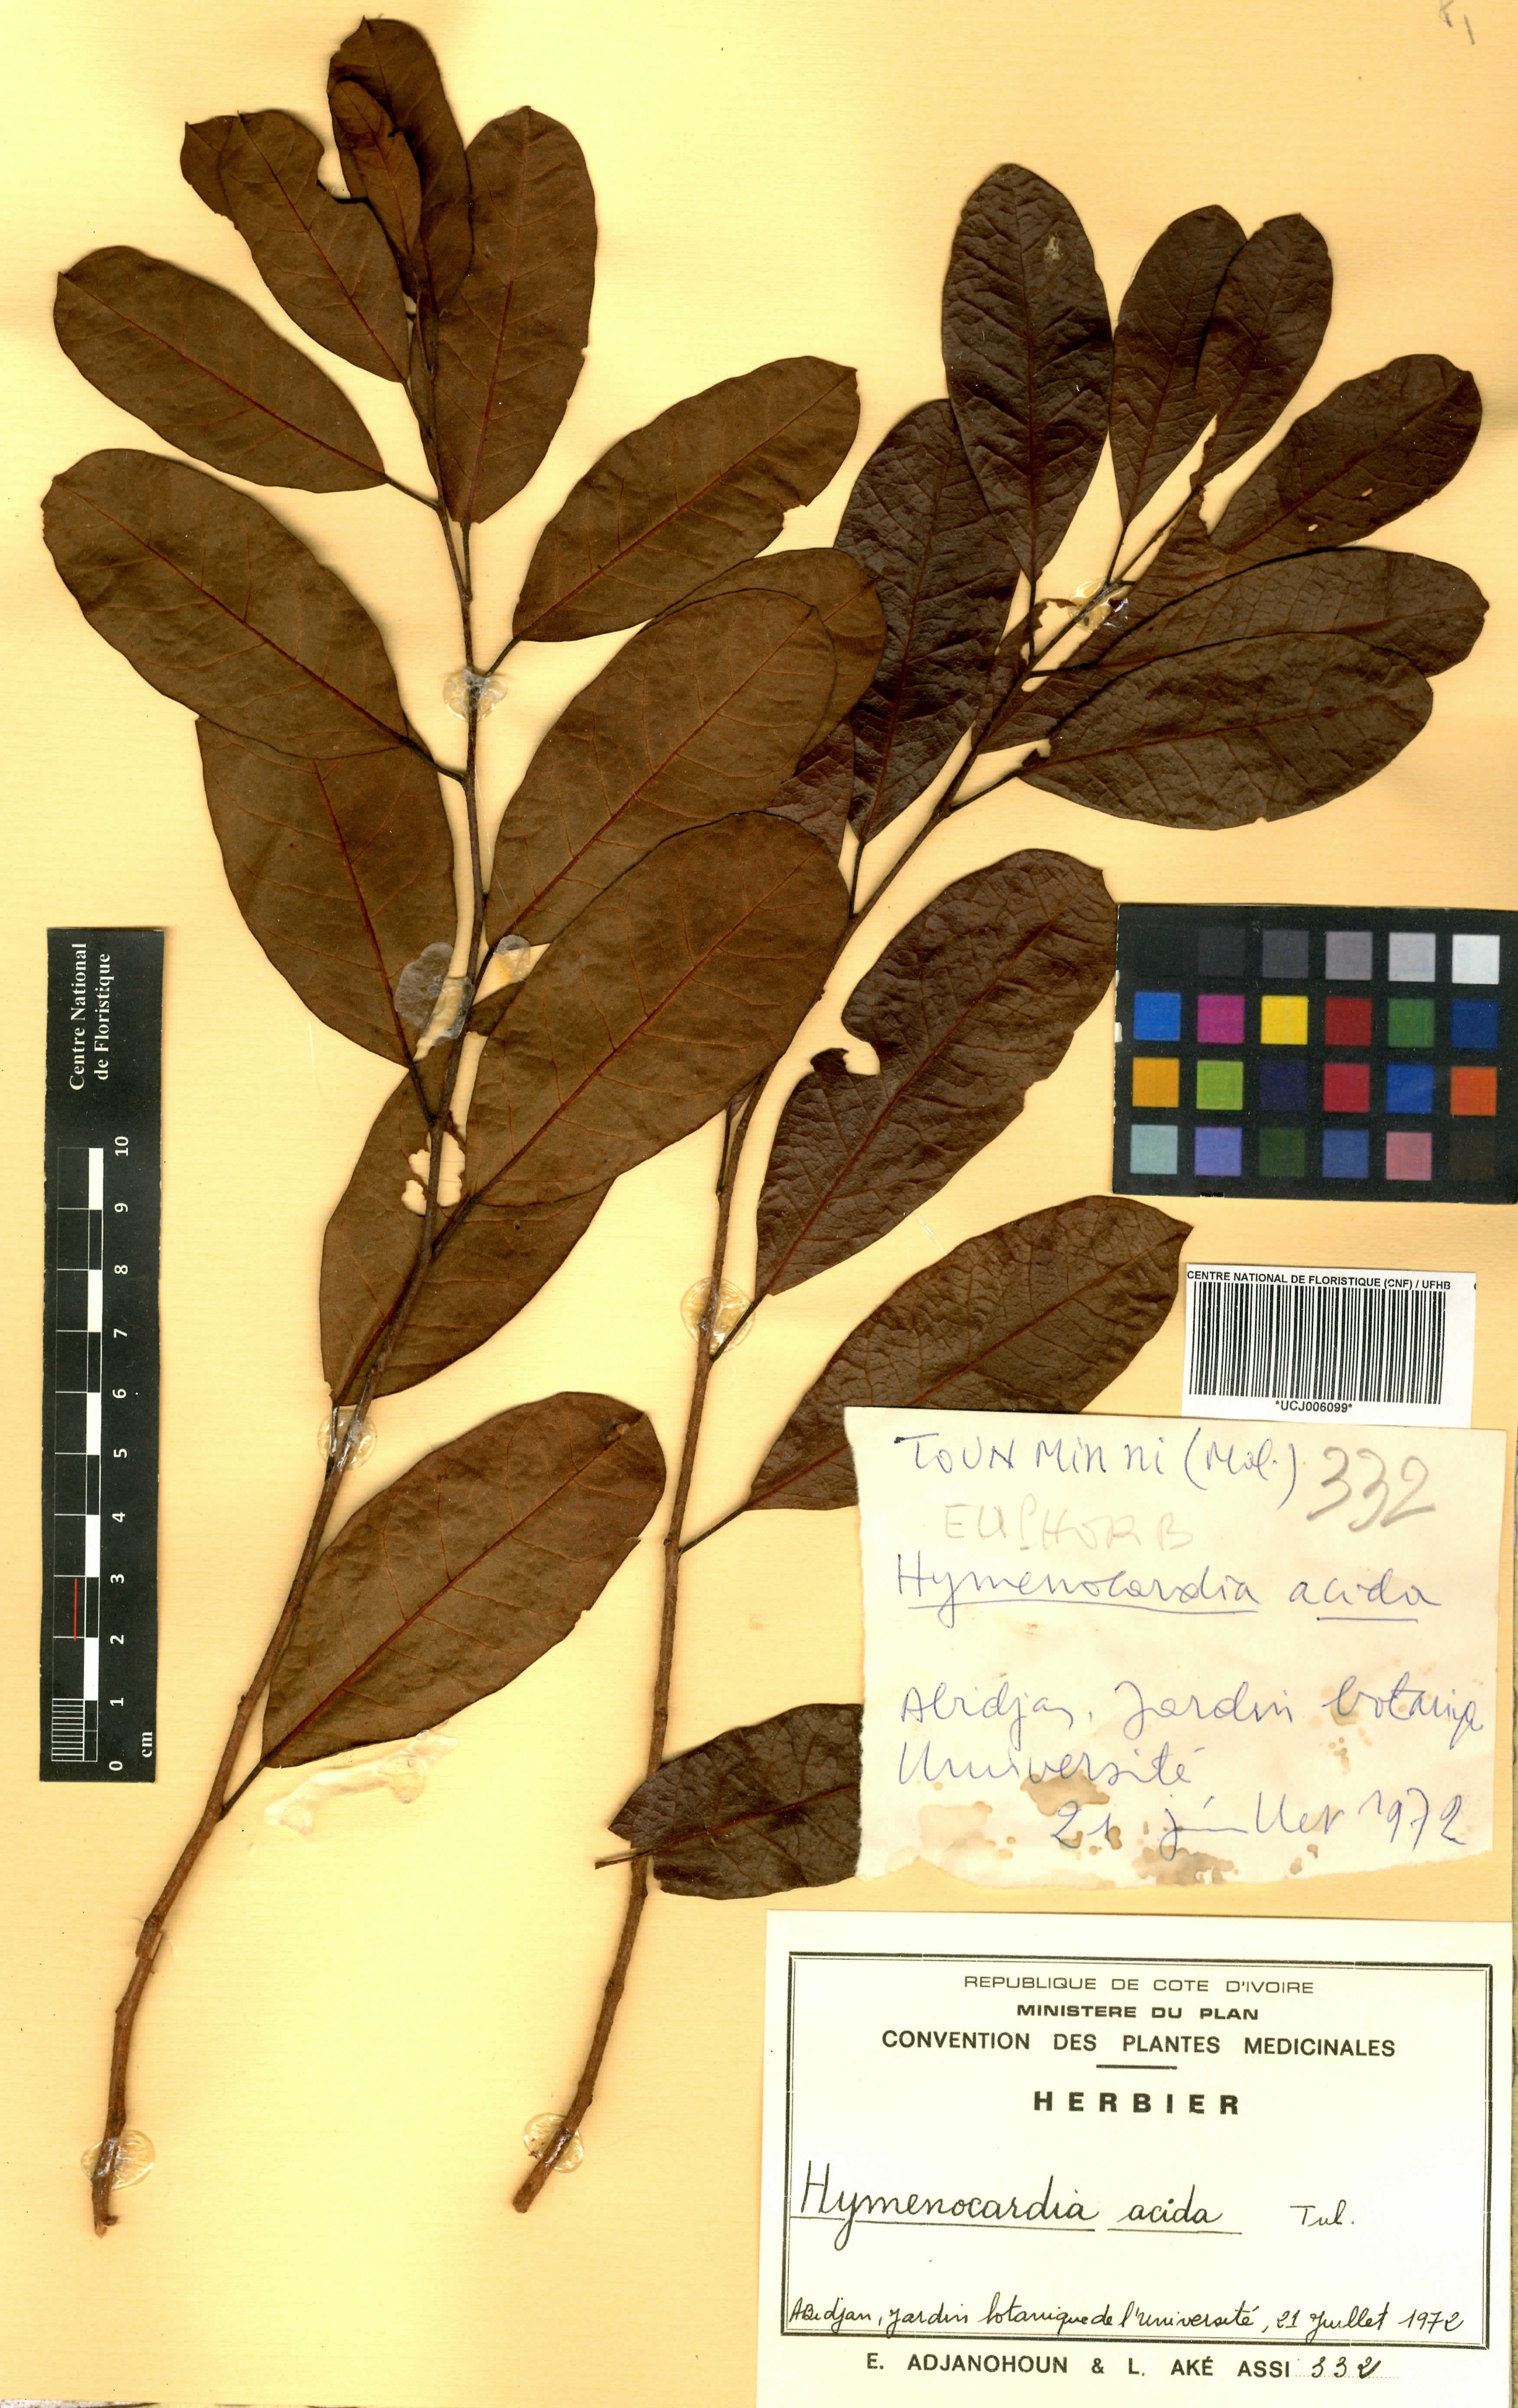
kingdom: Plantae
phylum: Tracheophyta
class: Magnoliopsida
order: Malpighiales
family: Phyllanthaceae
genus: Hymenocardia
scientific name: Hymenocardia acida
